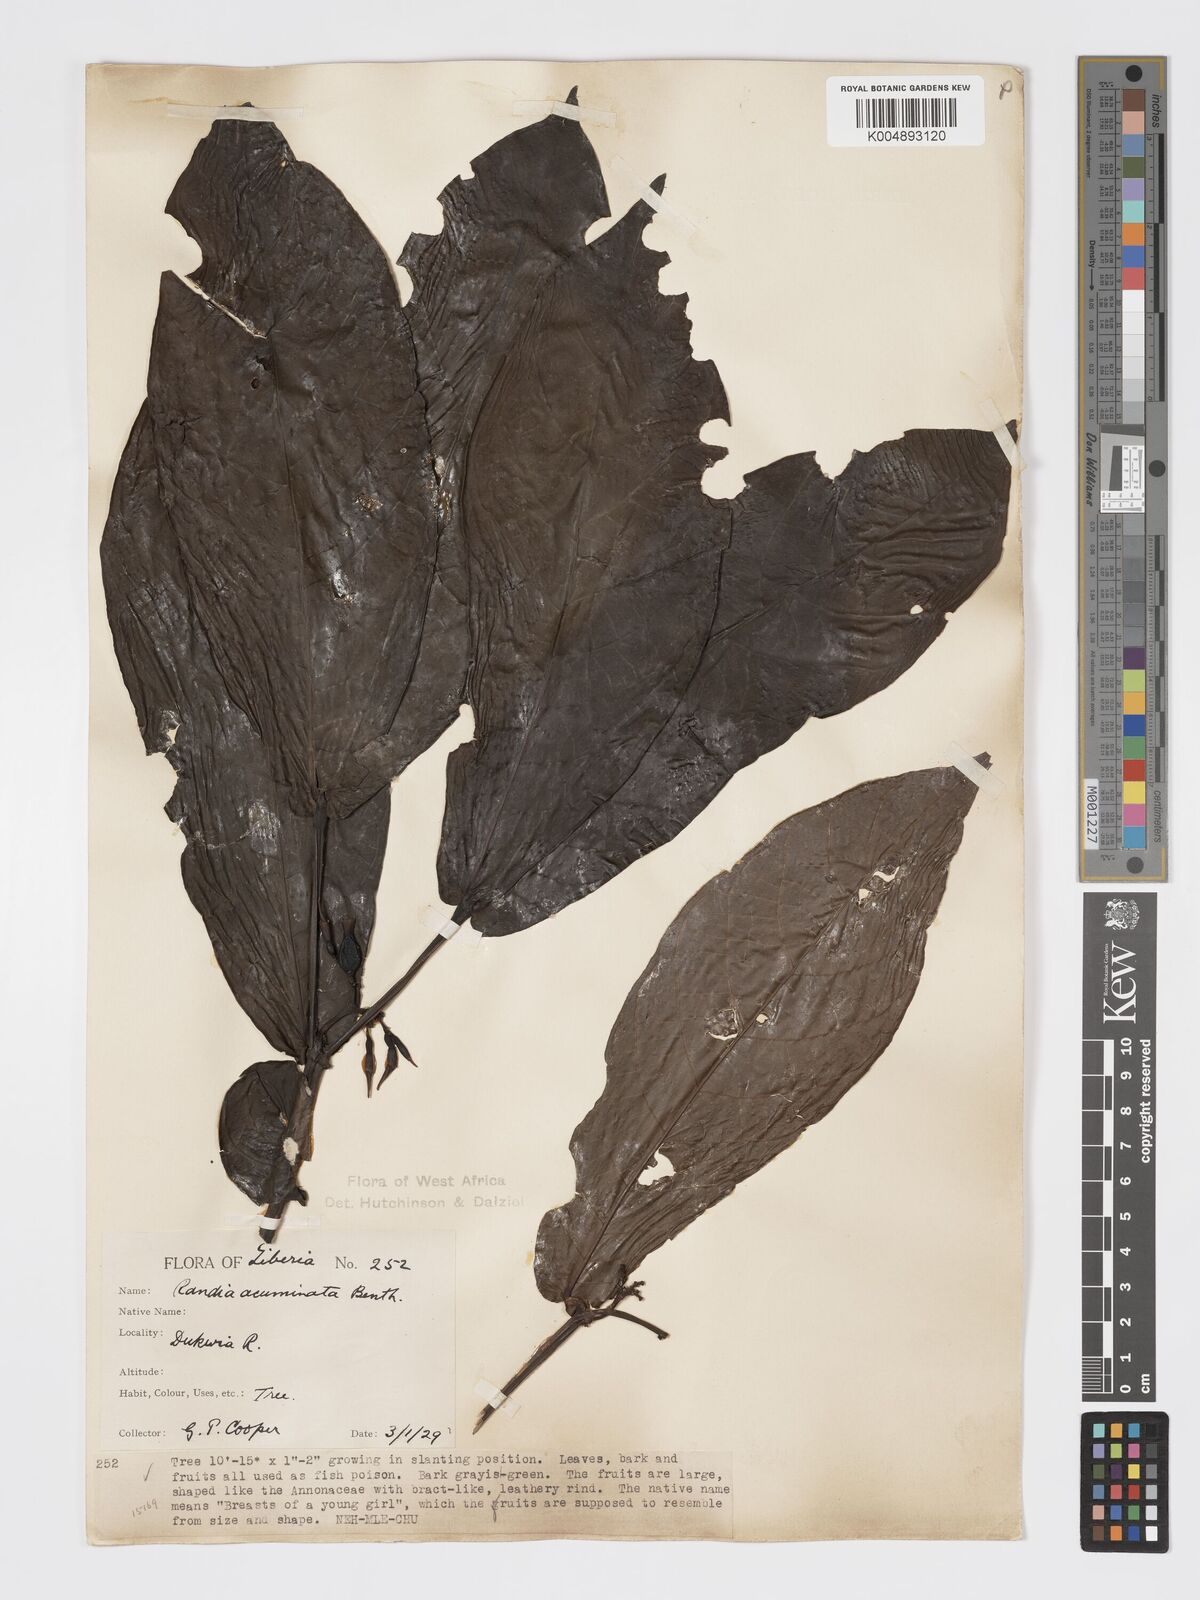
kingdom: Plantae
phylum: Tracheophyta
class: Magnoliopsida
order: Gentianales
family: Rubiaceae
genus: Massularia
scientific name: Massularia acuminata
